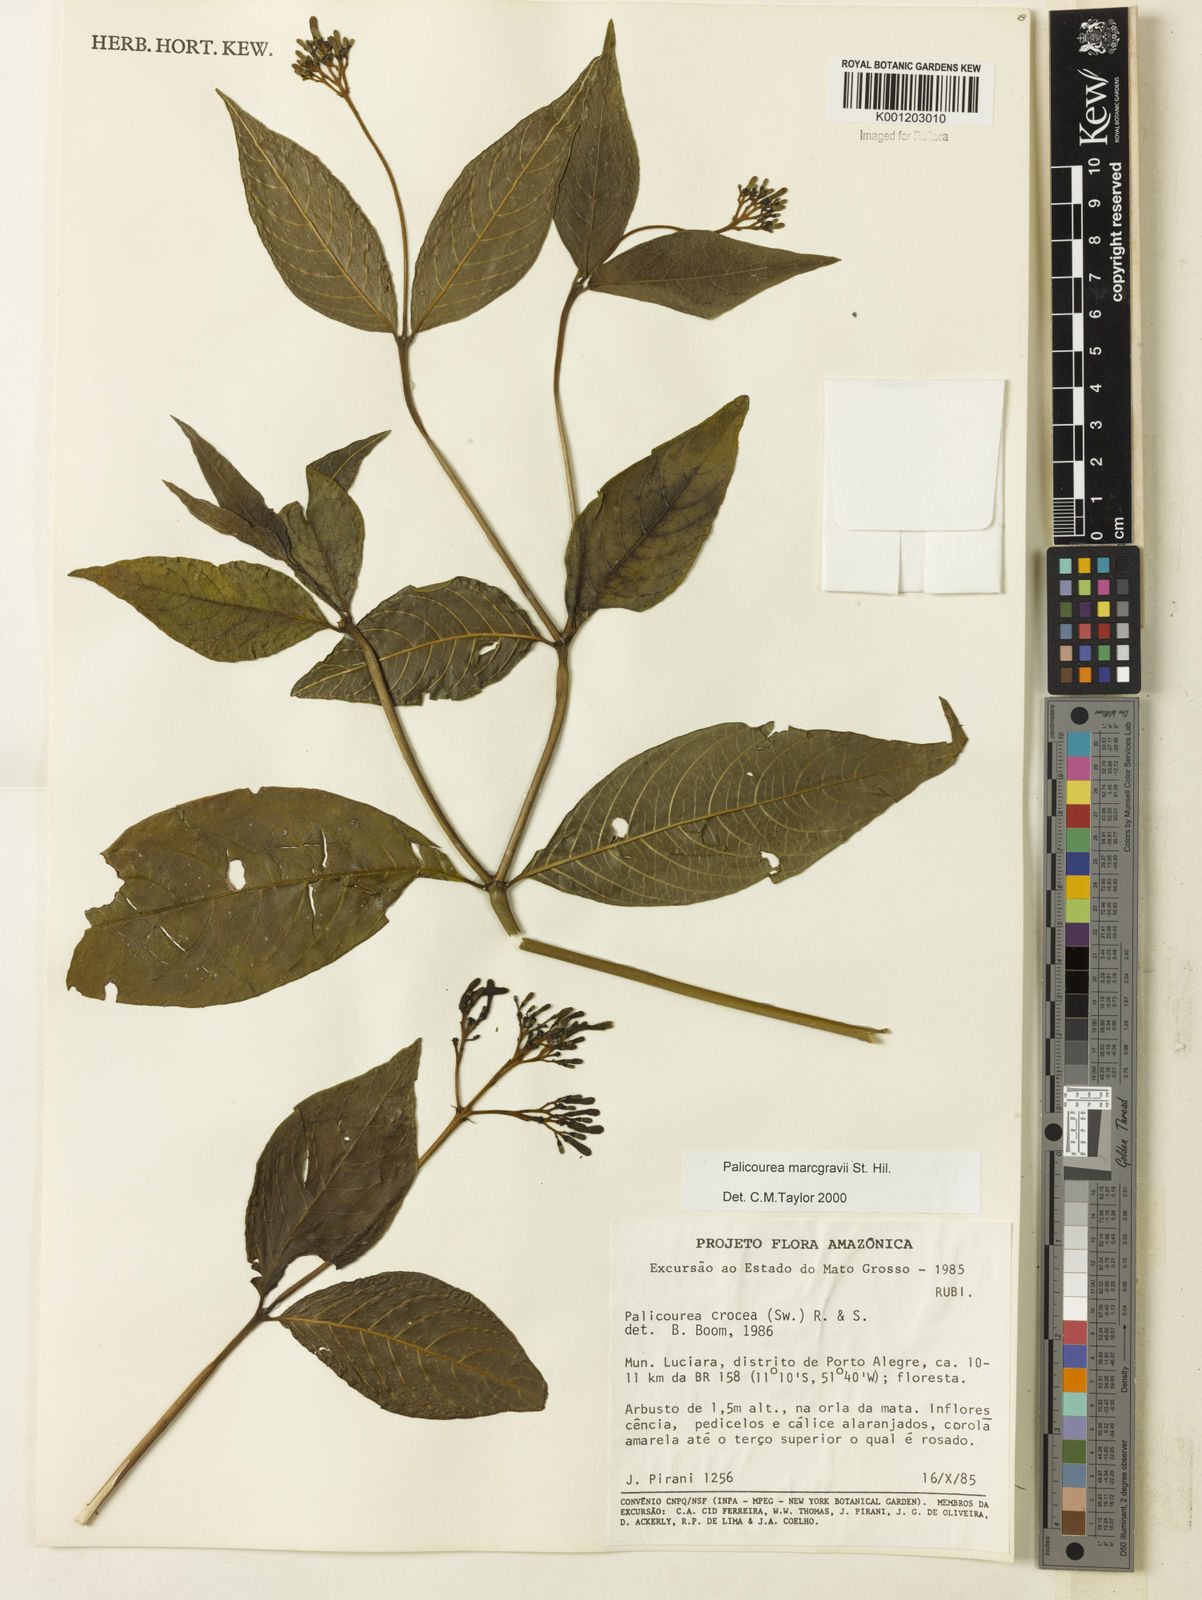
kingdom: Plantae
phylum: Tracheophyta
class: Magnoliopsida
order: Gentianales
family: Rubiaceae
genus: Palicourea
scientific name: Palicourea marcgravii
